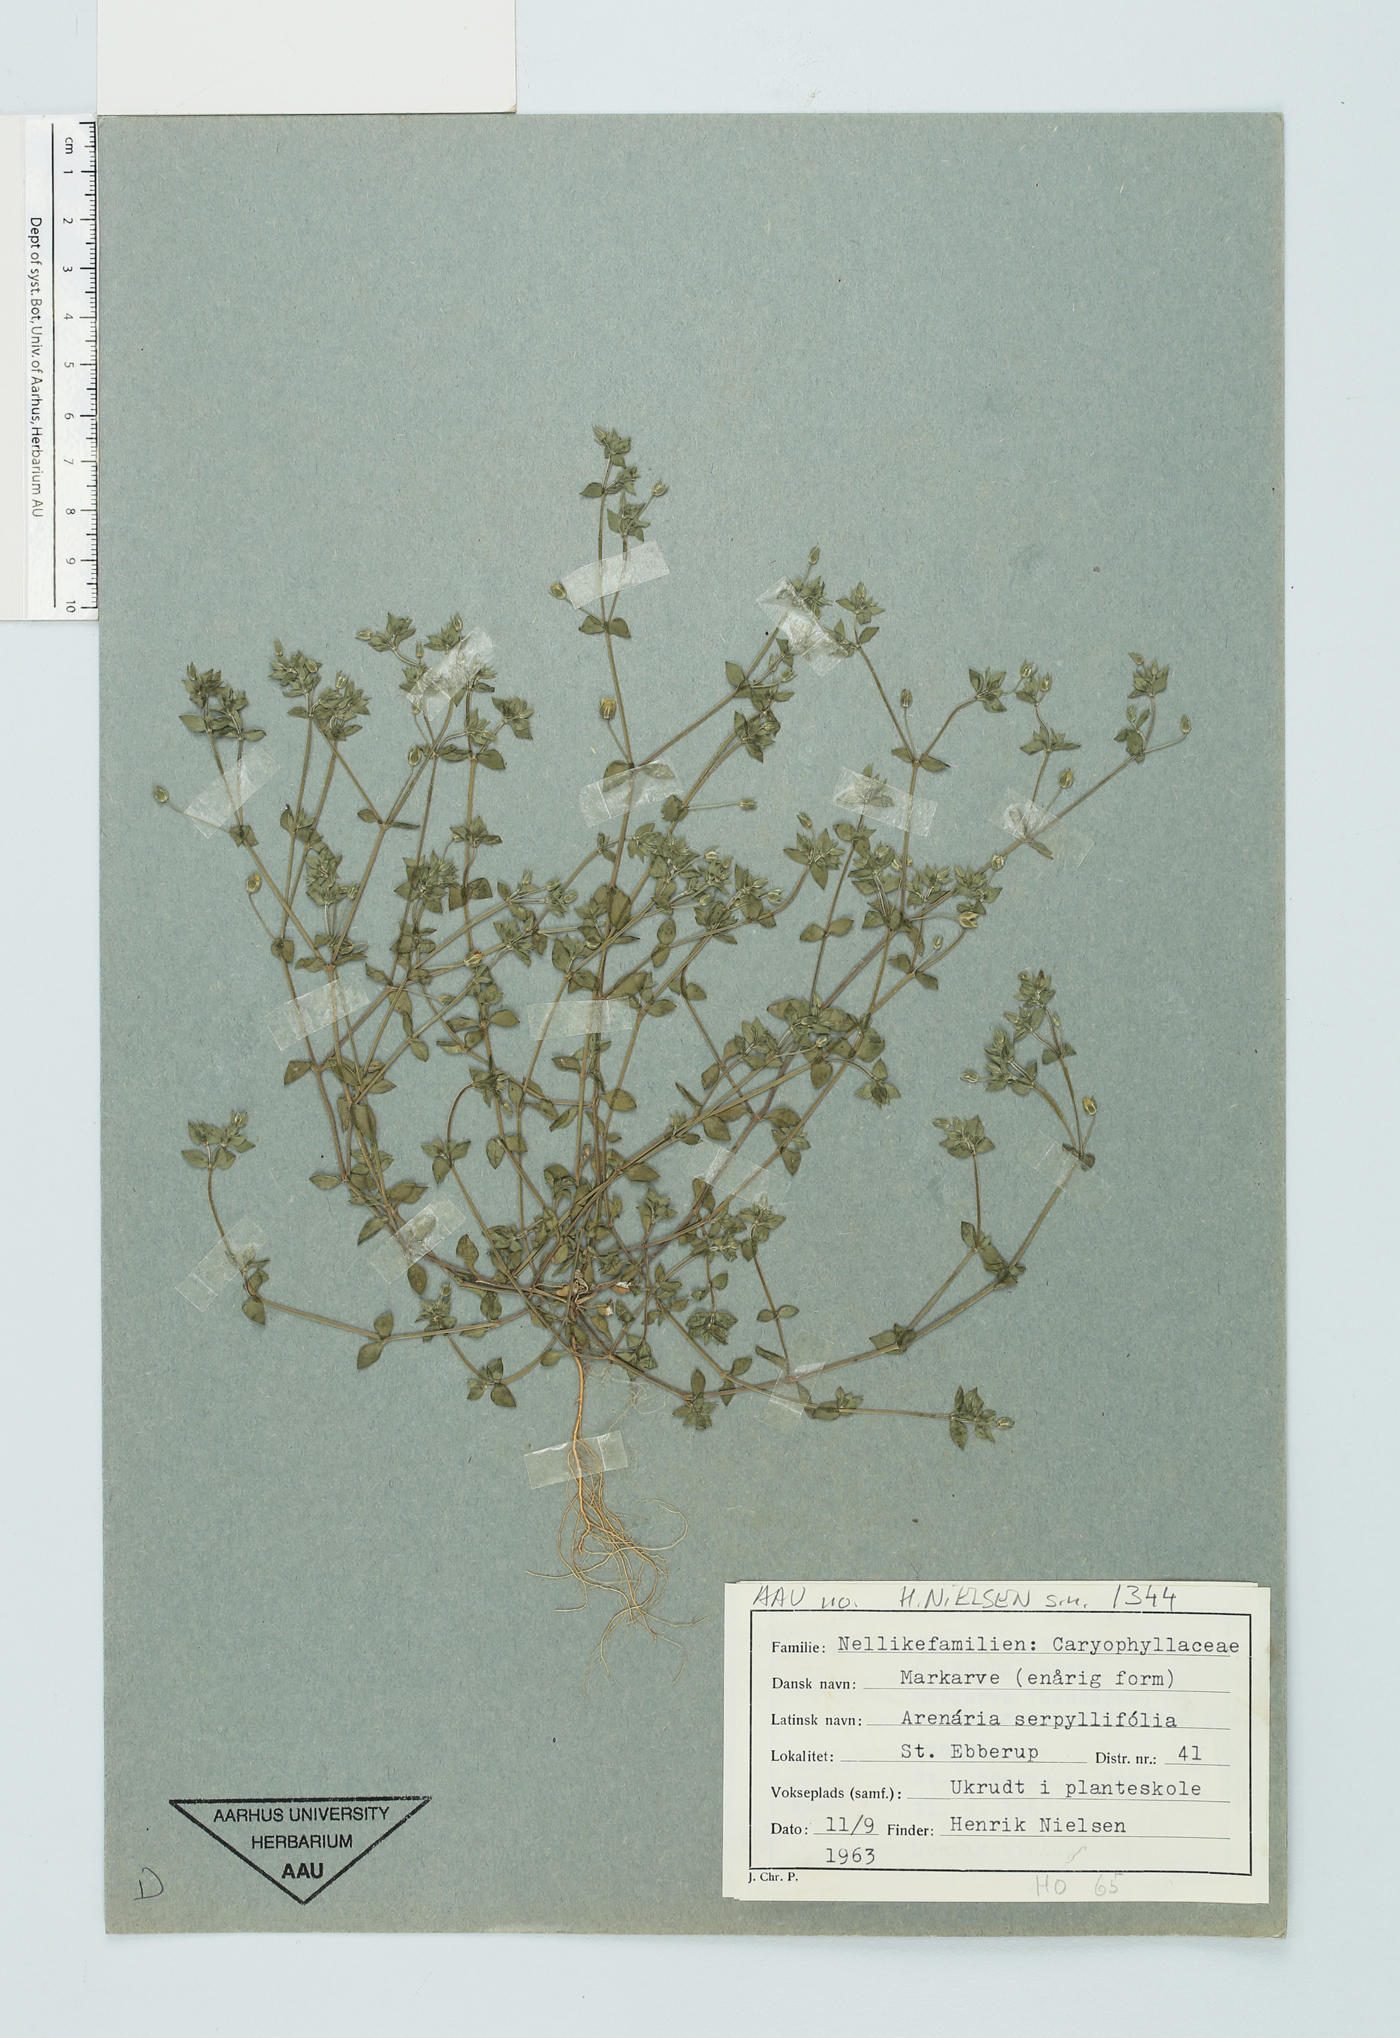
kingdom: Plantae
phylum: Tracheophyta
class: Magnoliopsida
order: Caryophyllales
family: Caryophyllaceae
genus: Arenaria
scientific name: Arenaria serpyllifolia
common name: Thyme-leaved sandwort
